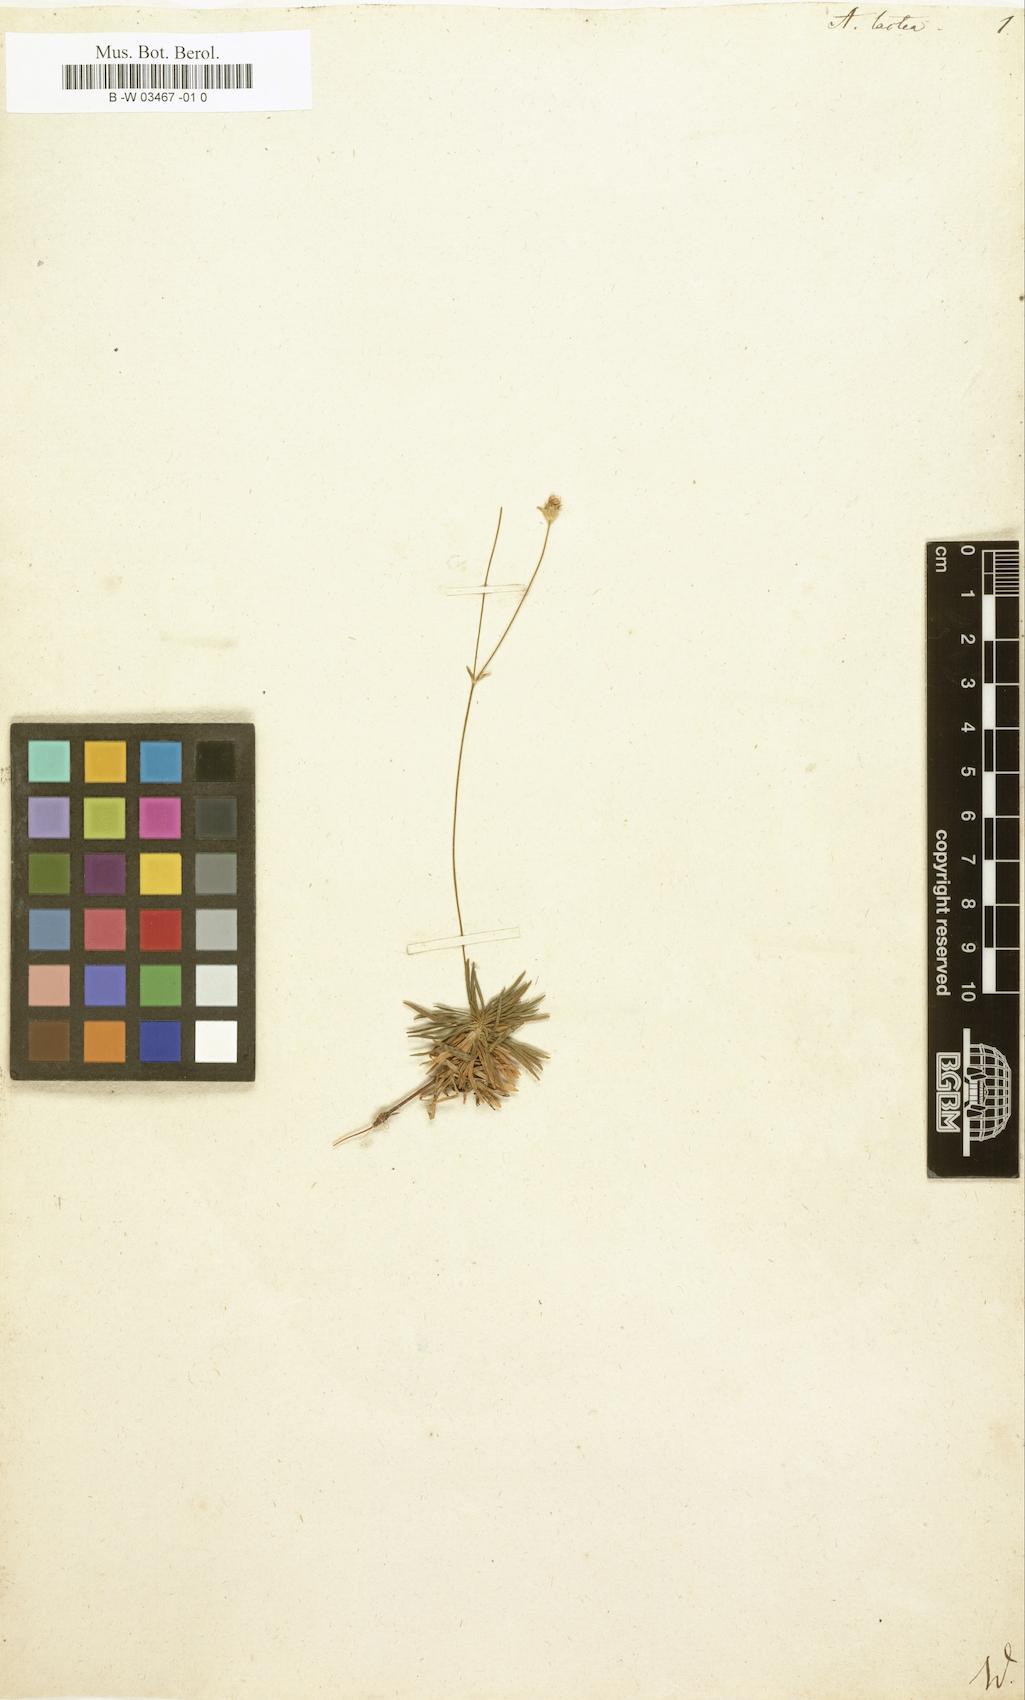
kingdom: Plantae
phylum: Tracheophyta
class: Magnoliopsida
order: Ericales
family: Primulaceae
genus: Androsace
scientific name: Androsace lactea
